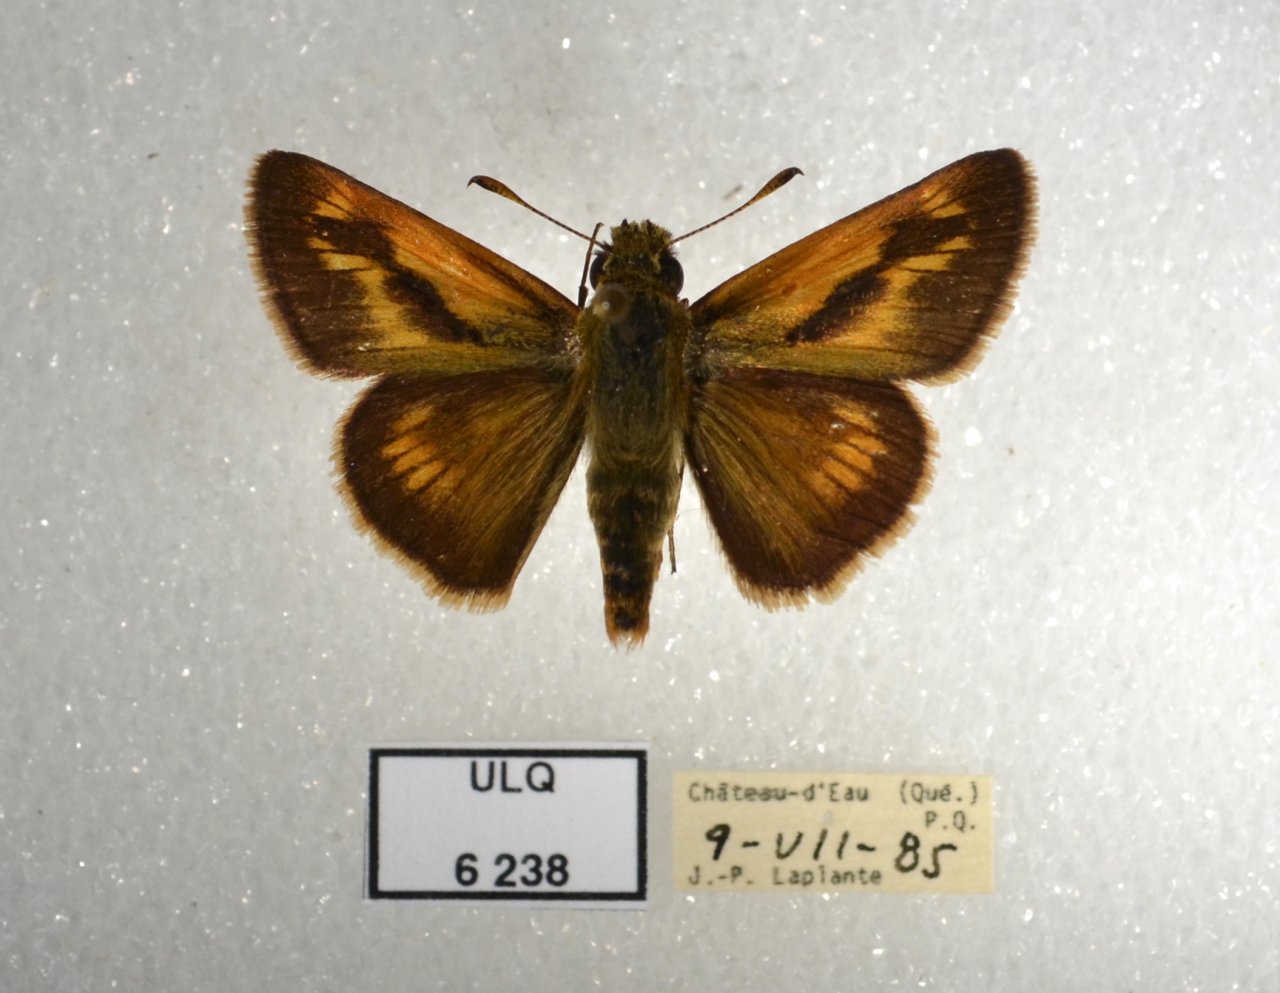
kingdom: Animalia
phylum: Arthropoda
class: Insecta
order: Lepidoptera
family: Hesperiidae
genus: Polites
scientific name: Polites
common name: Long Dash Skipper
